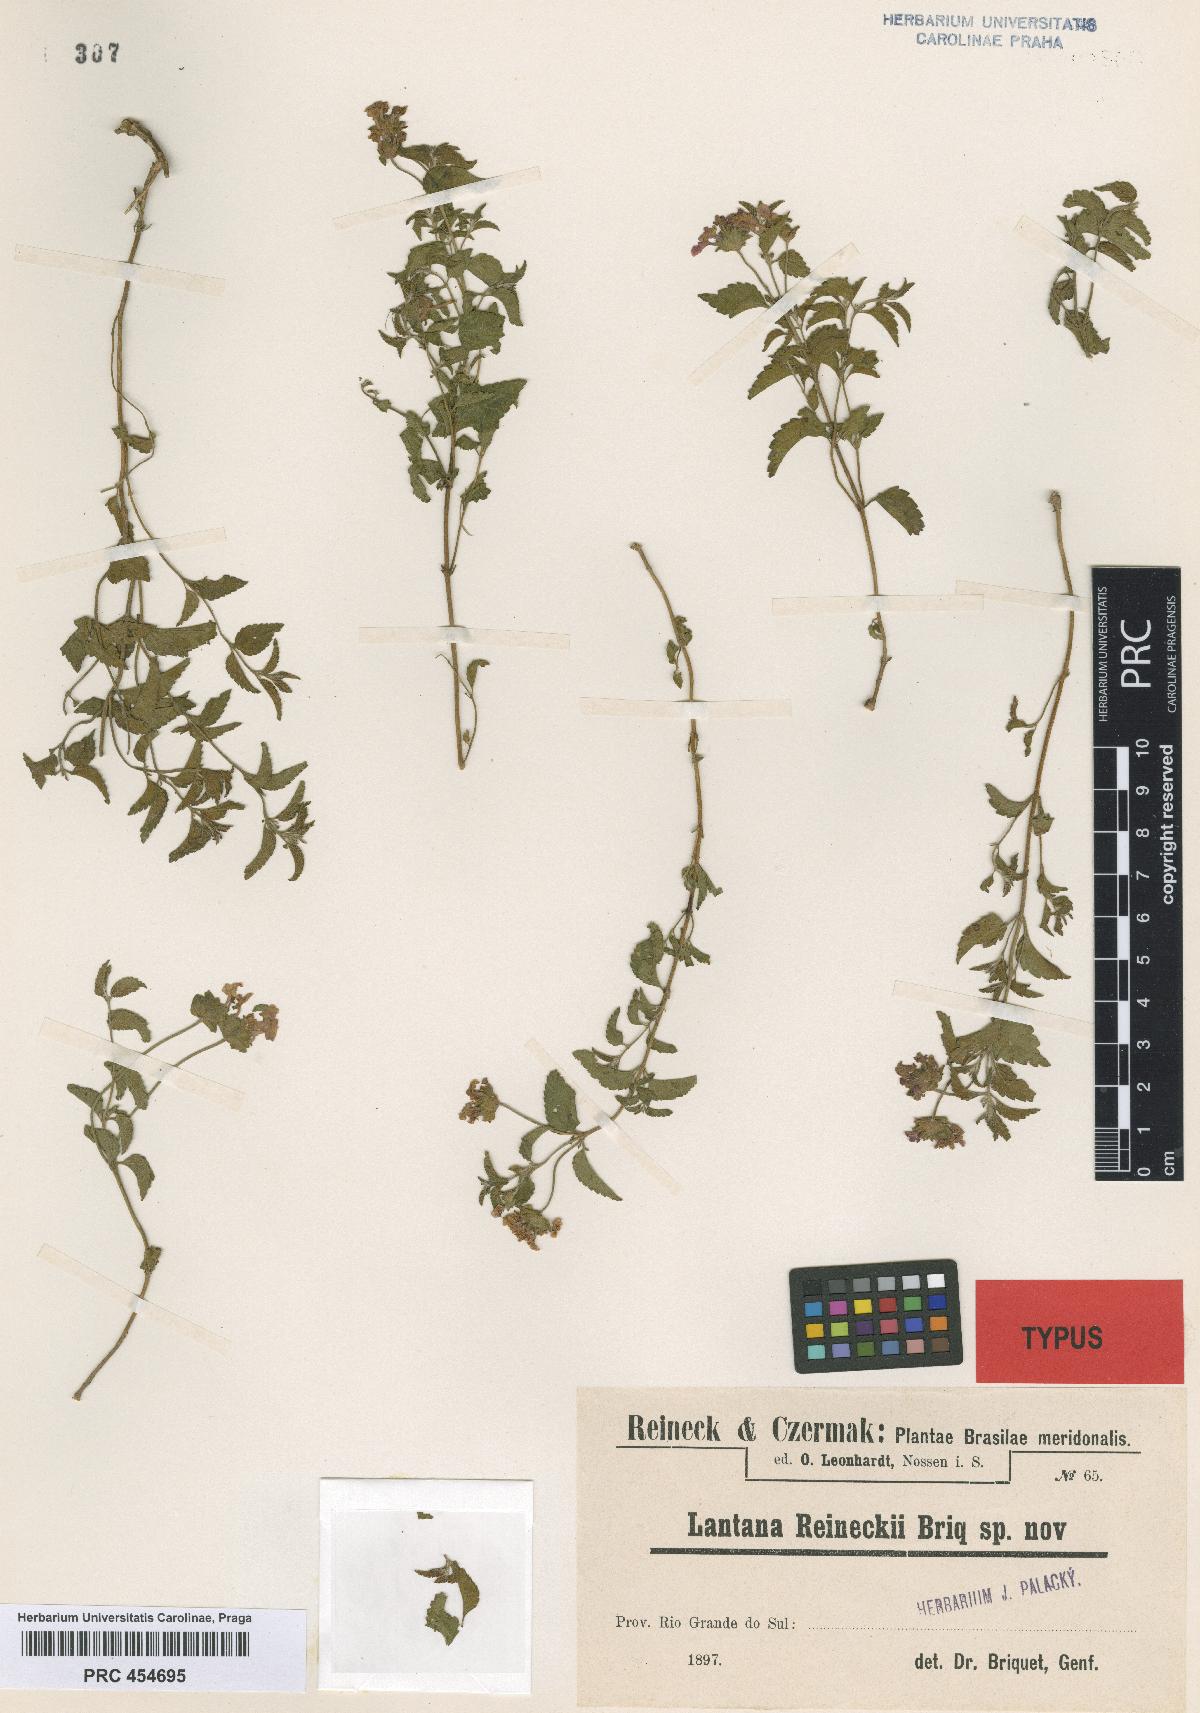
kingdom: Plantae
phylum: Tracheophyta
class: Magnoliopsida
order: Lamiales
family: Verbenaceae
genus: Lantana
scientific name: Lantana reineckii
